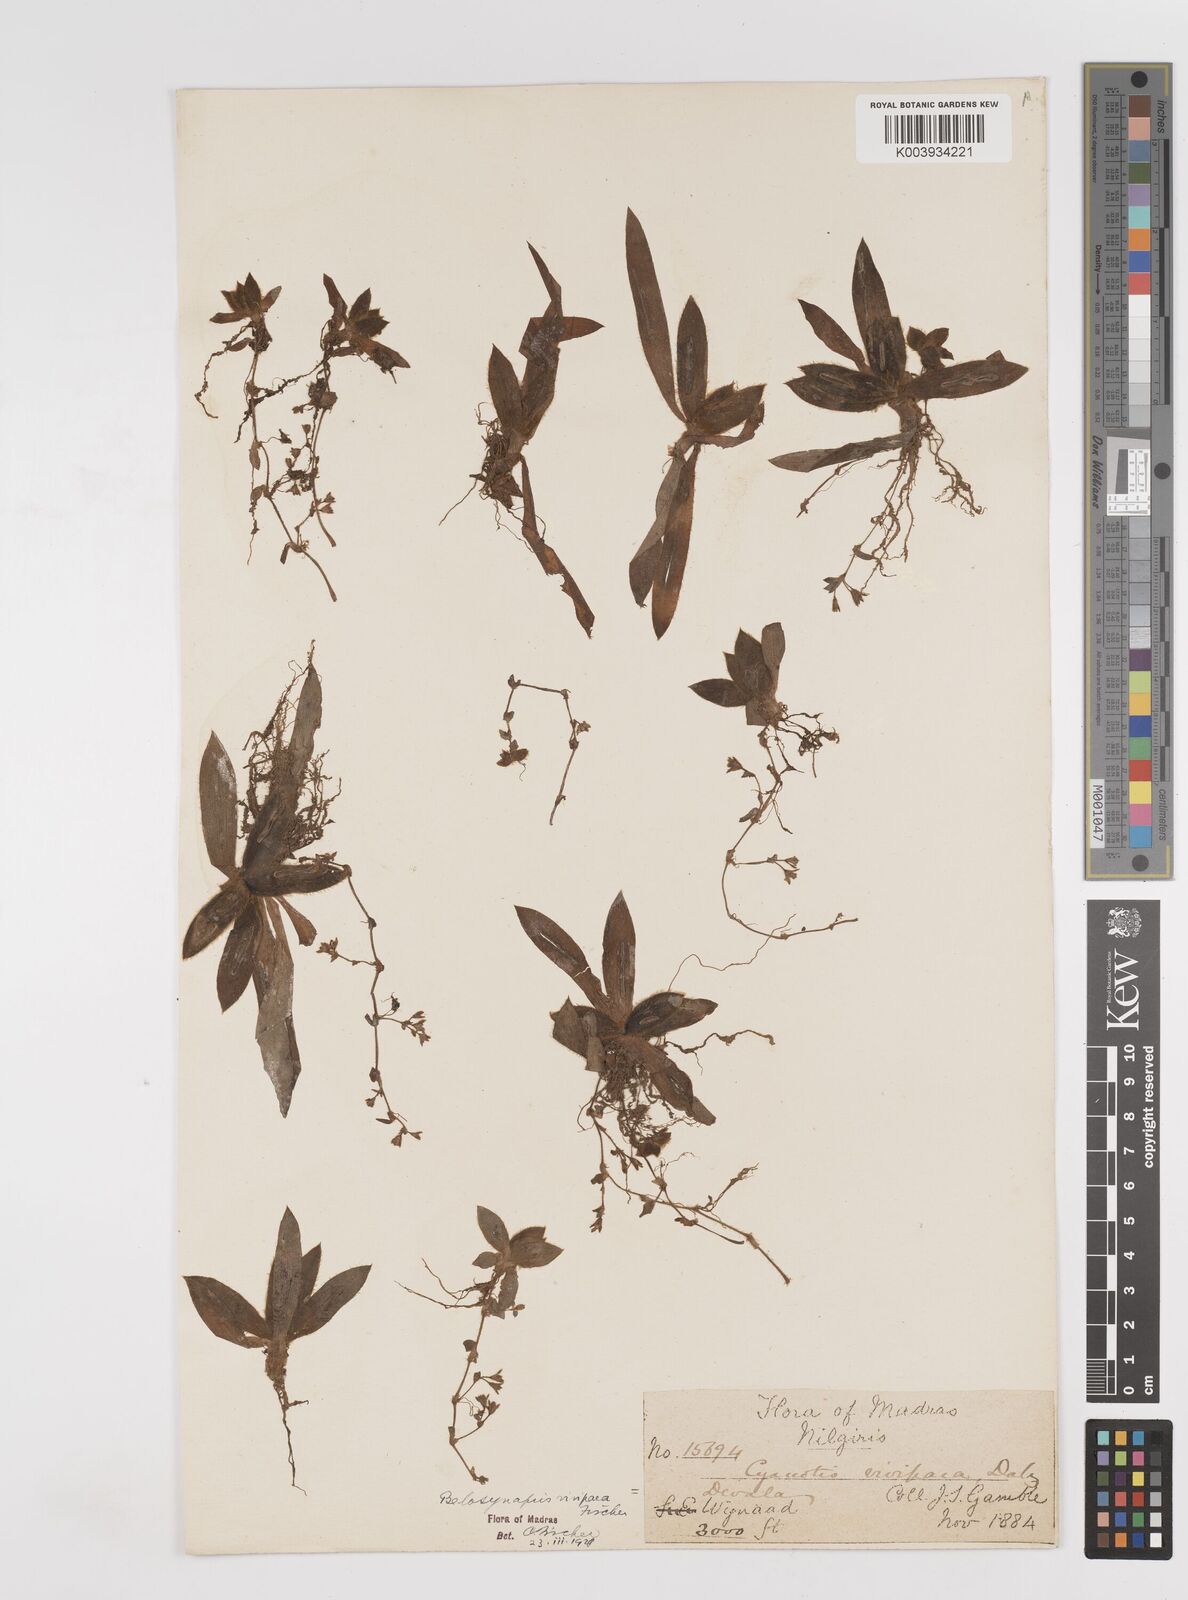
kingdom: Plantae
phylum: Tracheophyta
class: Liliopsida
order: Commelinales
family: Commelinaceae
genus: Cyanotis
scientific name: Cyanotis vivipara
